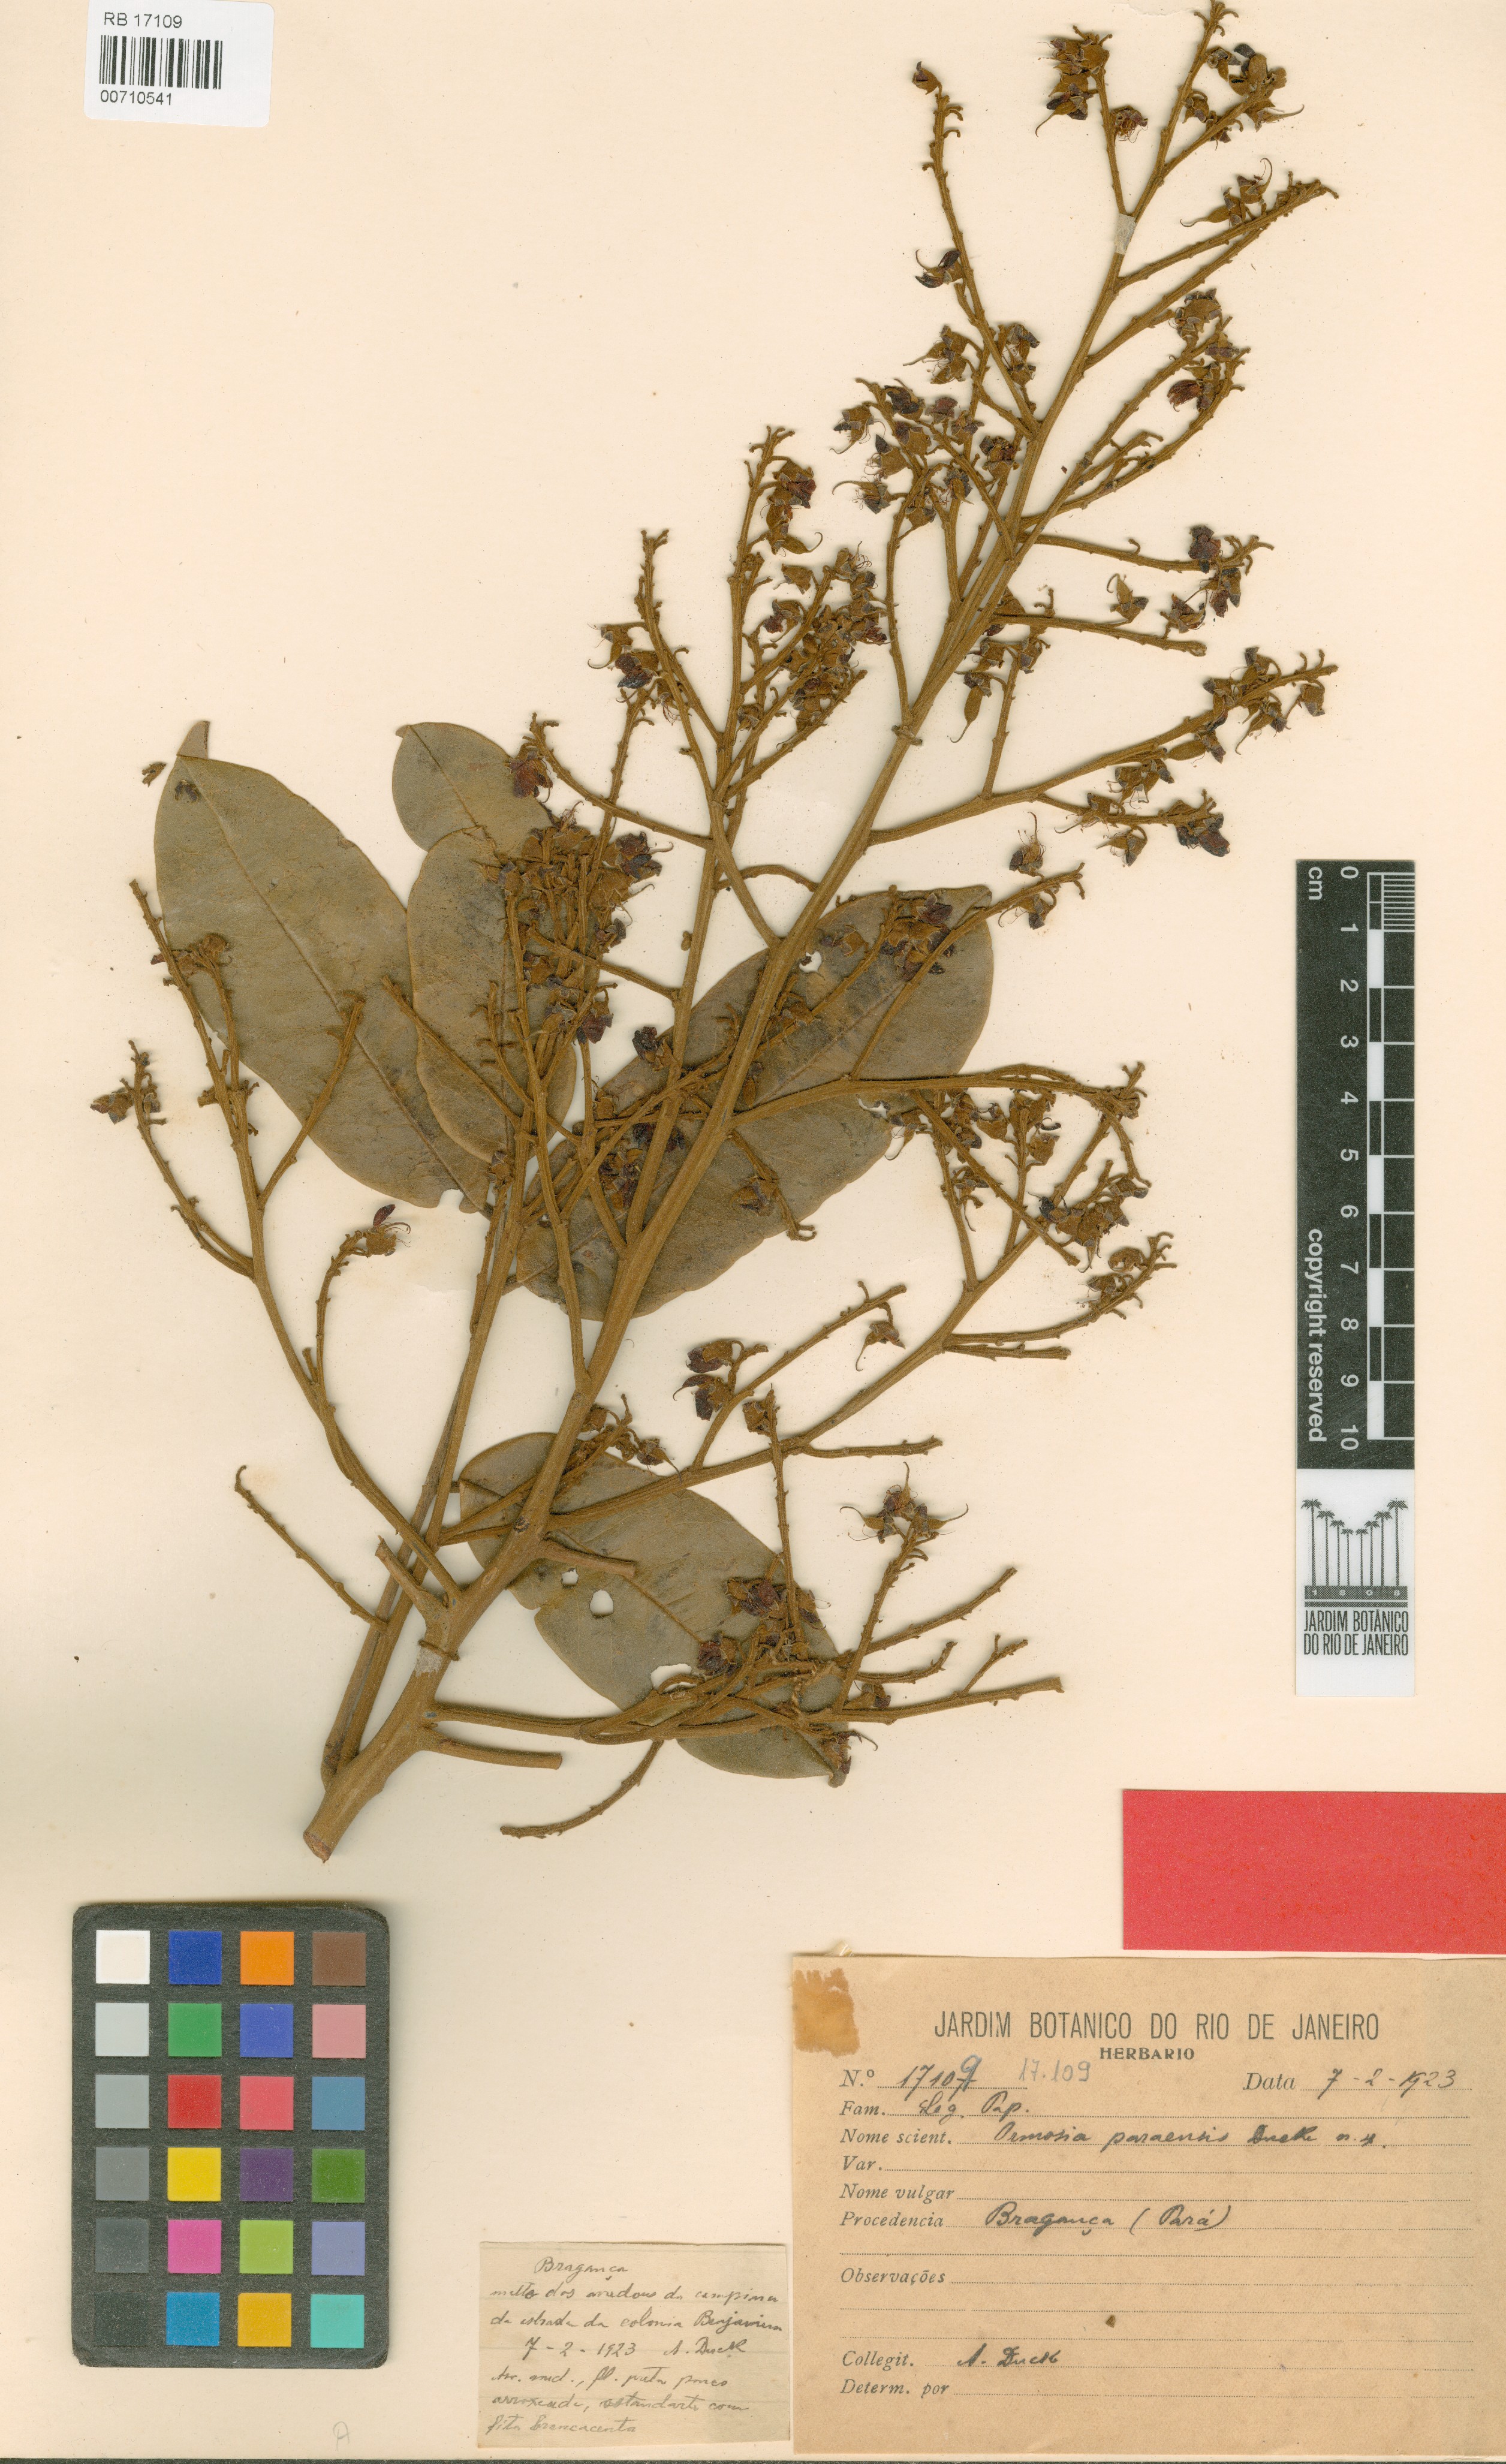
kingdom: Plantae
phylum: Tracheophyta
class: Magnoliopsida
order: Fabales
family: Fabaceae
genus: Ormosia
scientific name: Ormosia paraensis
